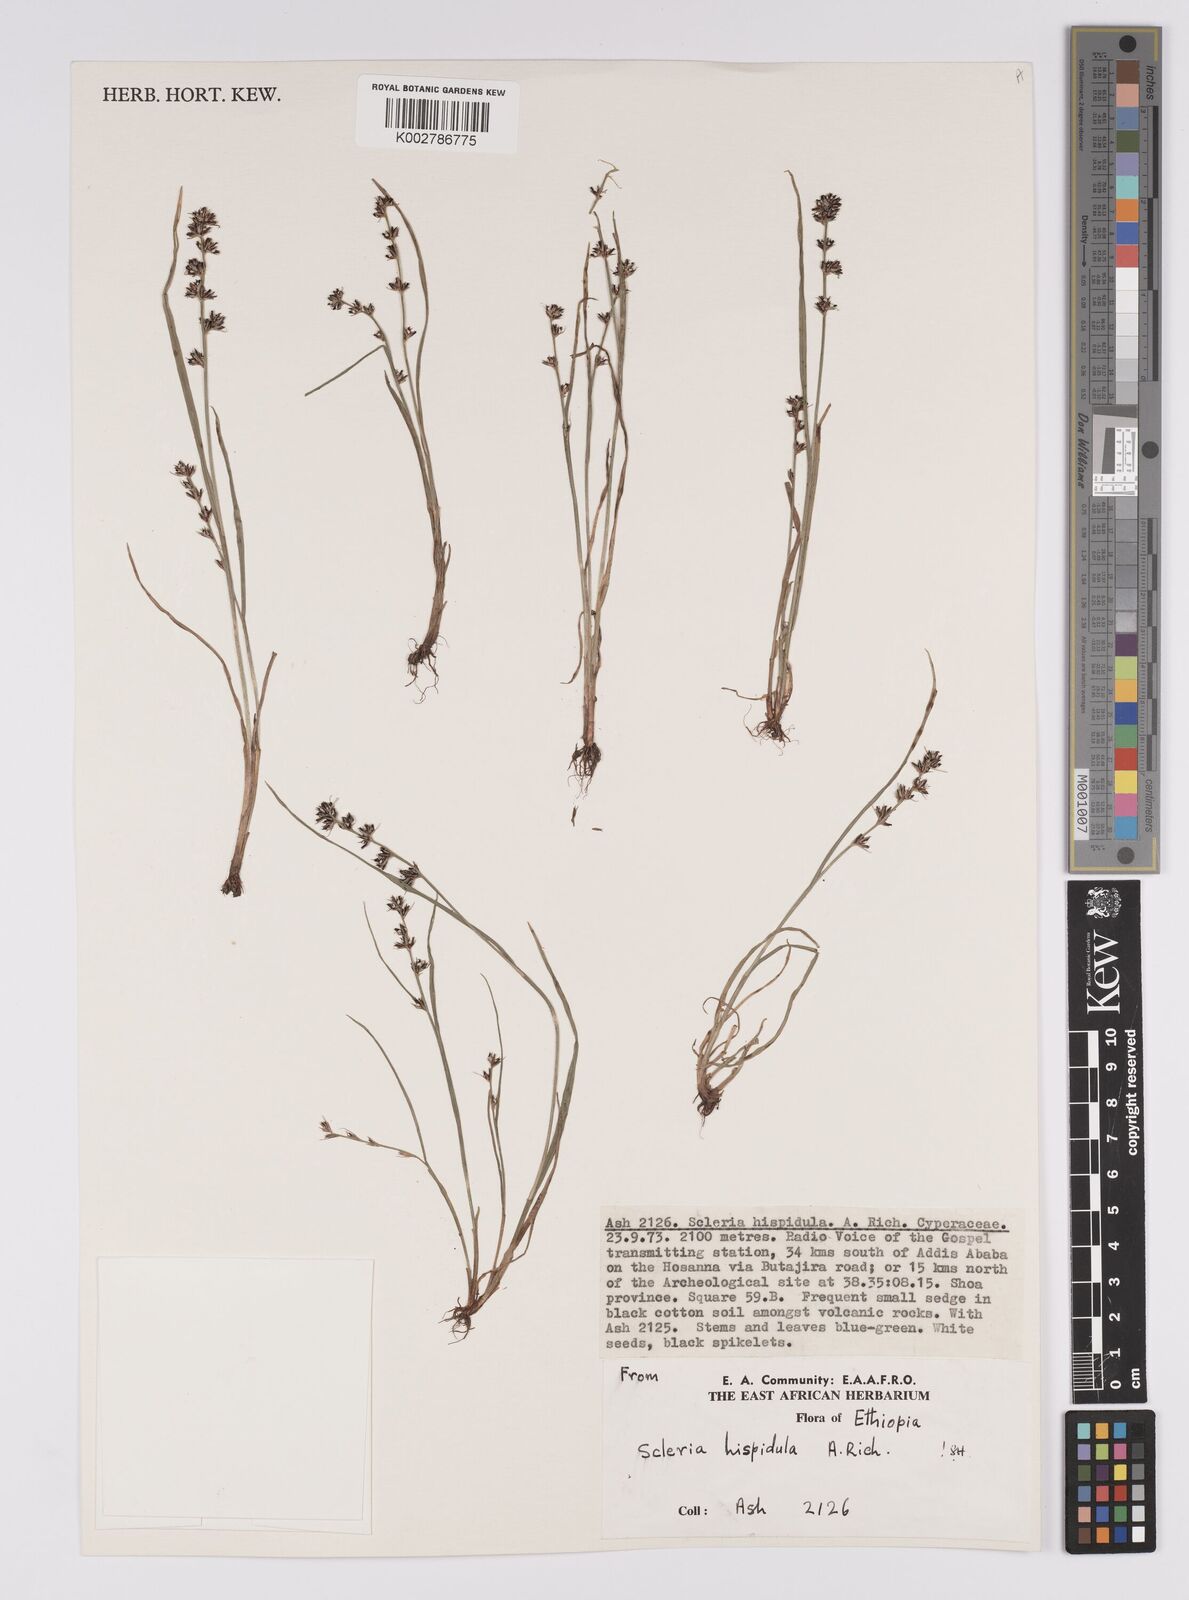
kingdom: Plantae
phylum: Tracheophyta
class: Liliopsida
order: Poales
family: Cyperaceae
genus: Scleria
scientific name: Scleria hispidula
